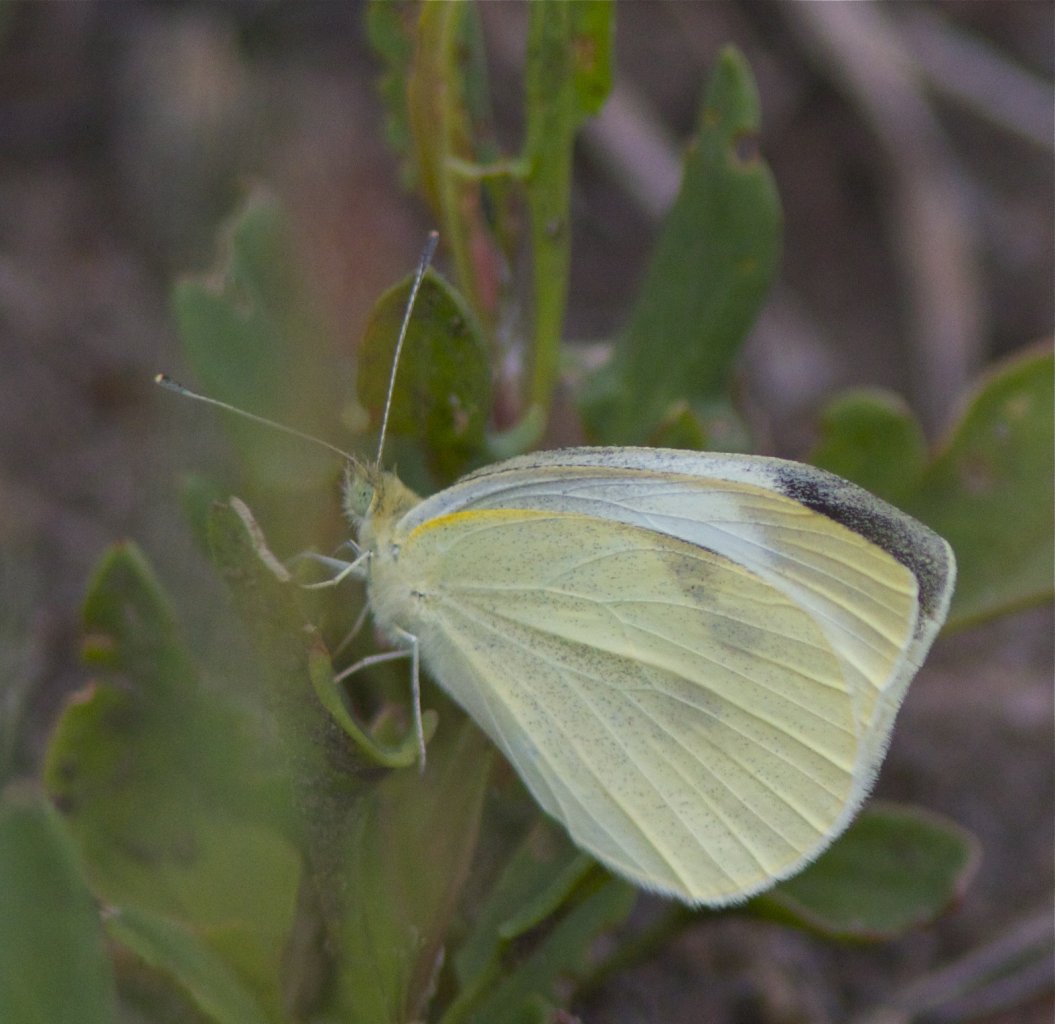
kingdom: Animalia
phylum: Arthropoda
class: Insecta
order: Lepidoptera
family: Pieridae
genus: Pieris
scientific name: Pieris rapae
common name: Cabbage White
